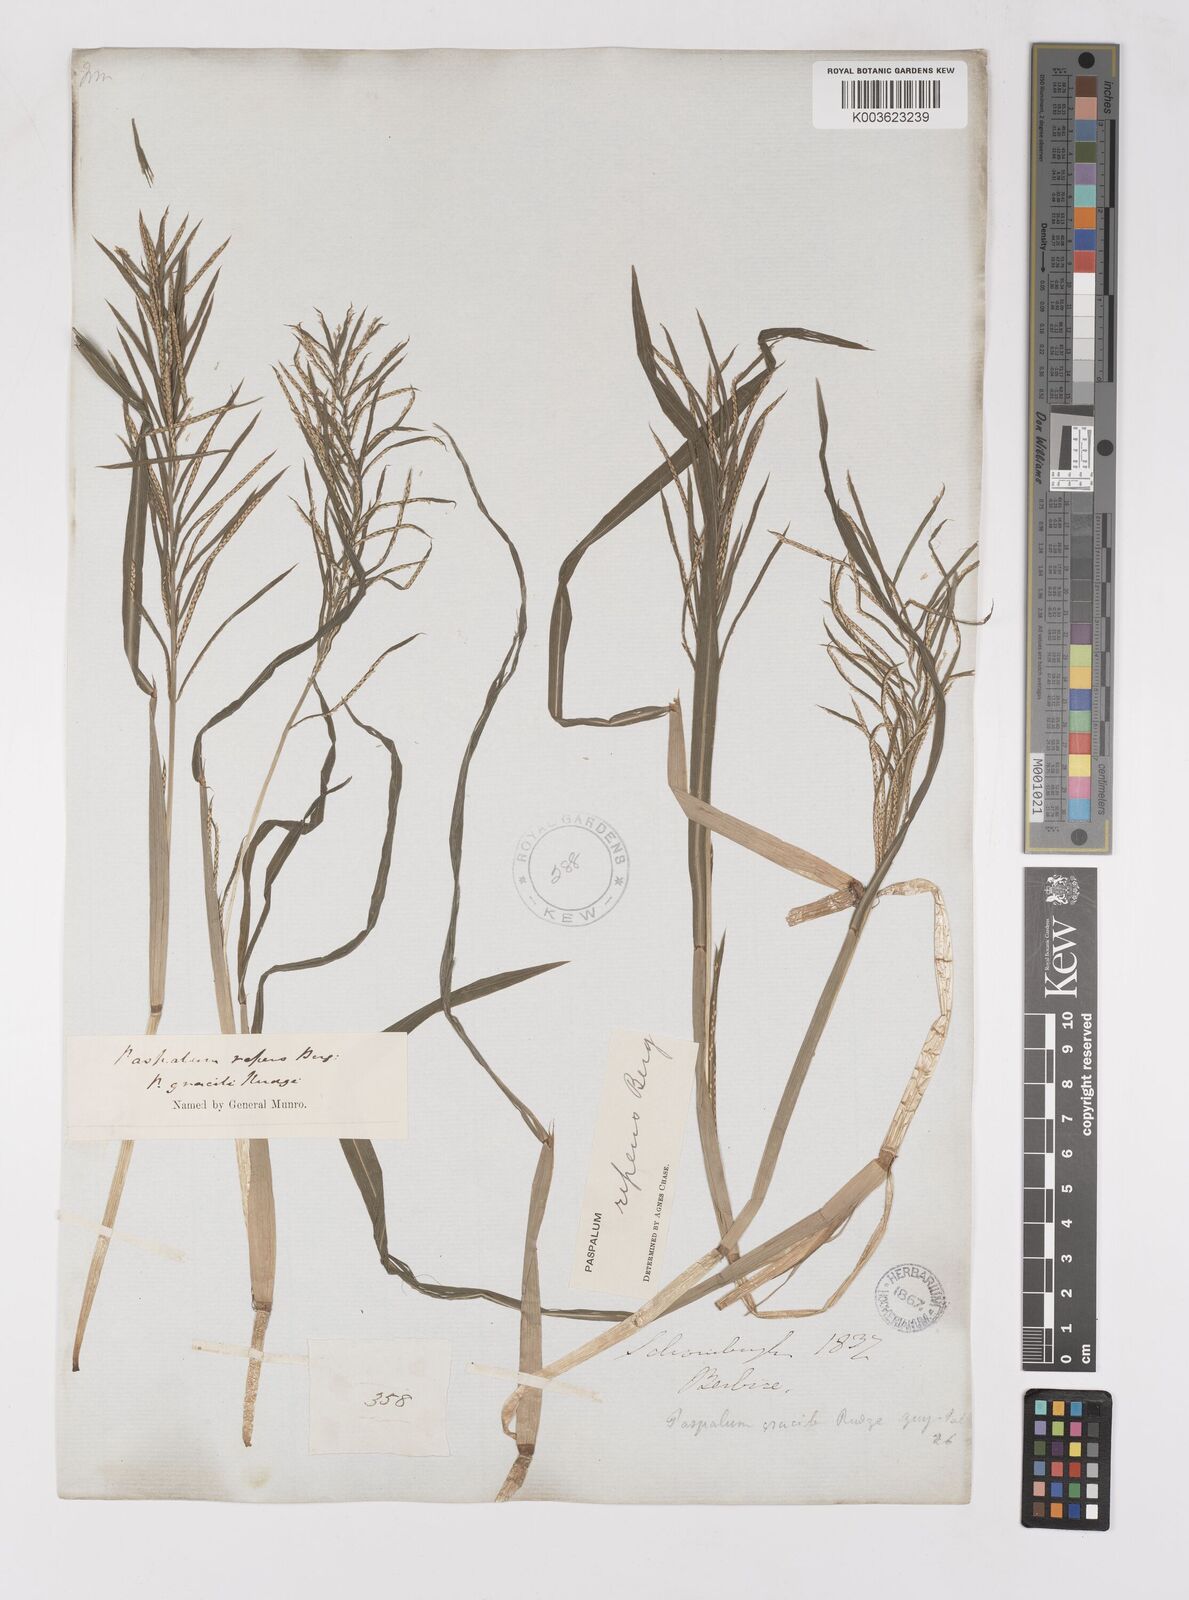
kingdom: Plantae
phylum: Tracheophyta
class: Liliopsida
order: Poales
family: Poaceae
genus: Paspalum
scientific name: Paspalum repens
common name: Water paspalum
